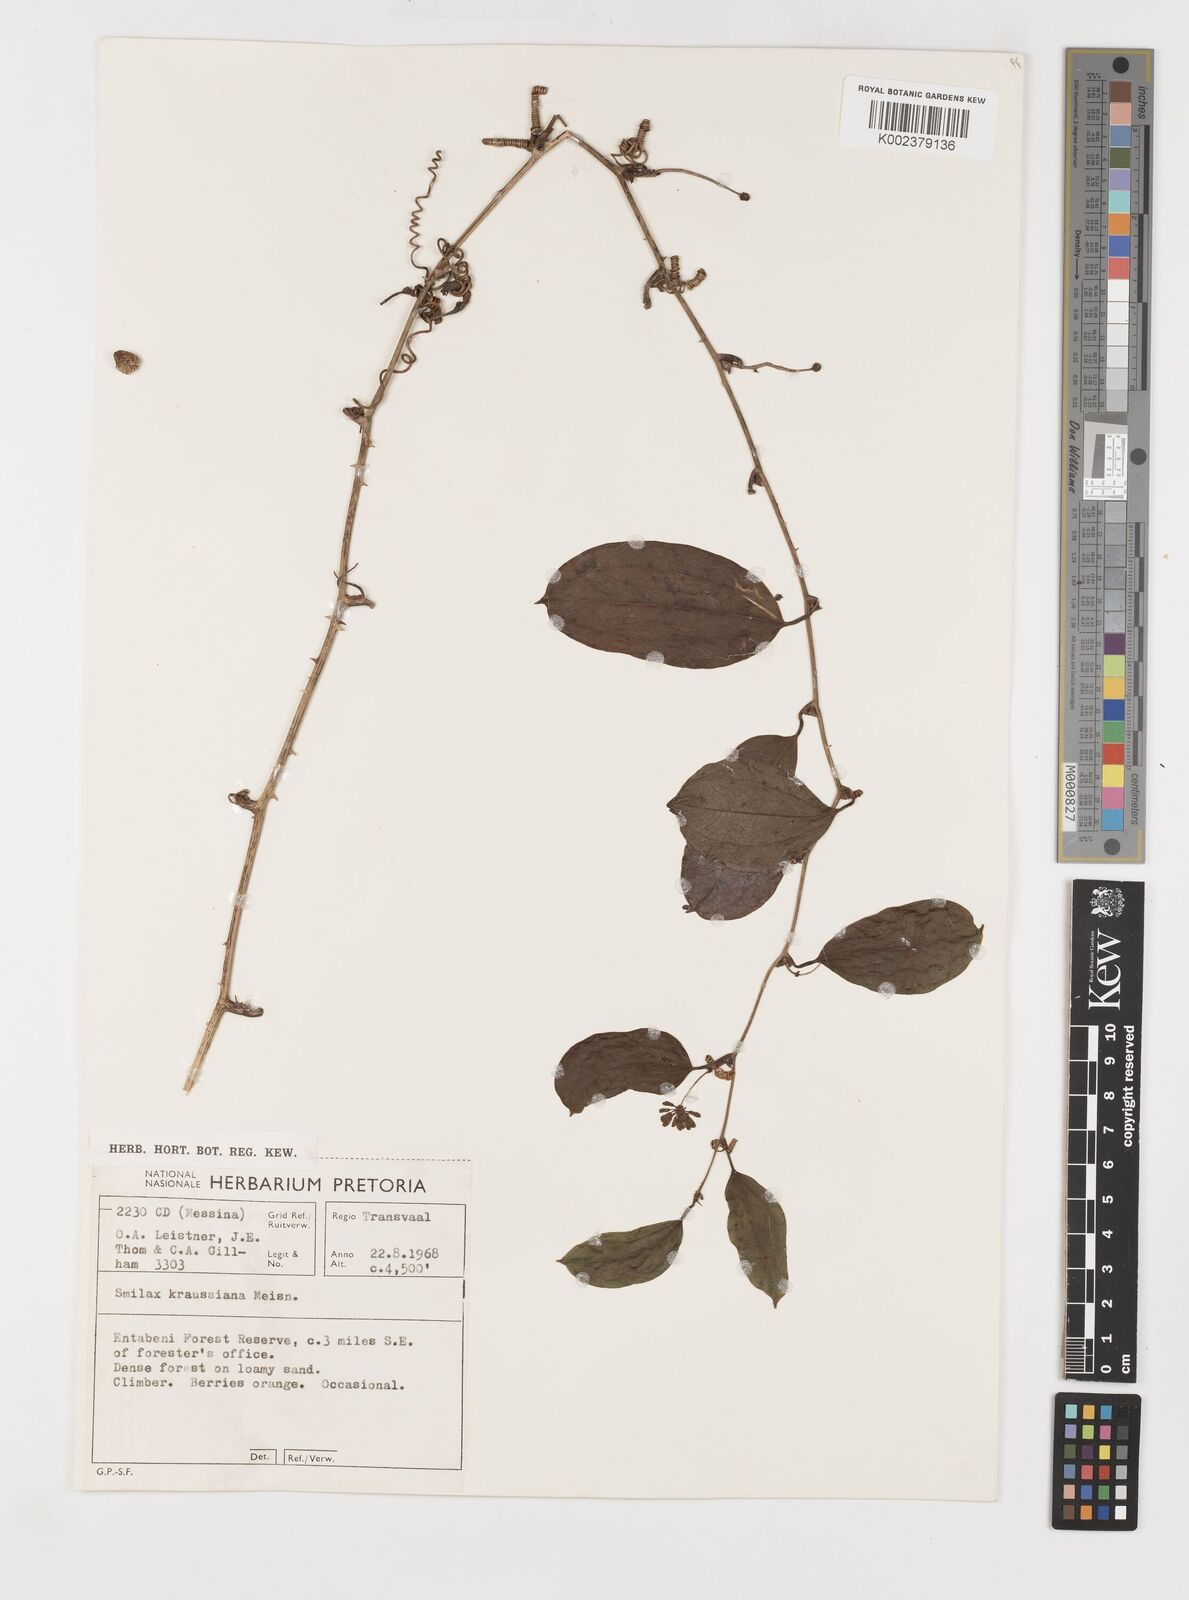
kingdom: Plantae
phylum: Tracheophyta
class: Liliopsida
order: Liliales
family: Smilacaceae
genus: Smilax
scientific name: Smilax anceps
